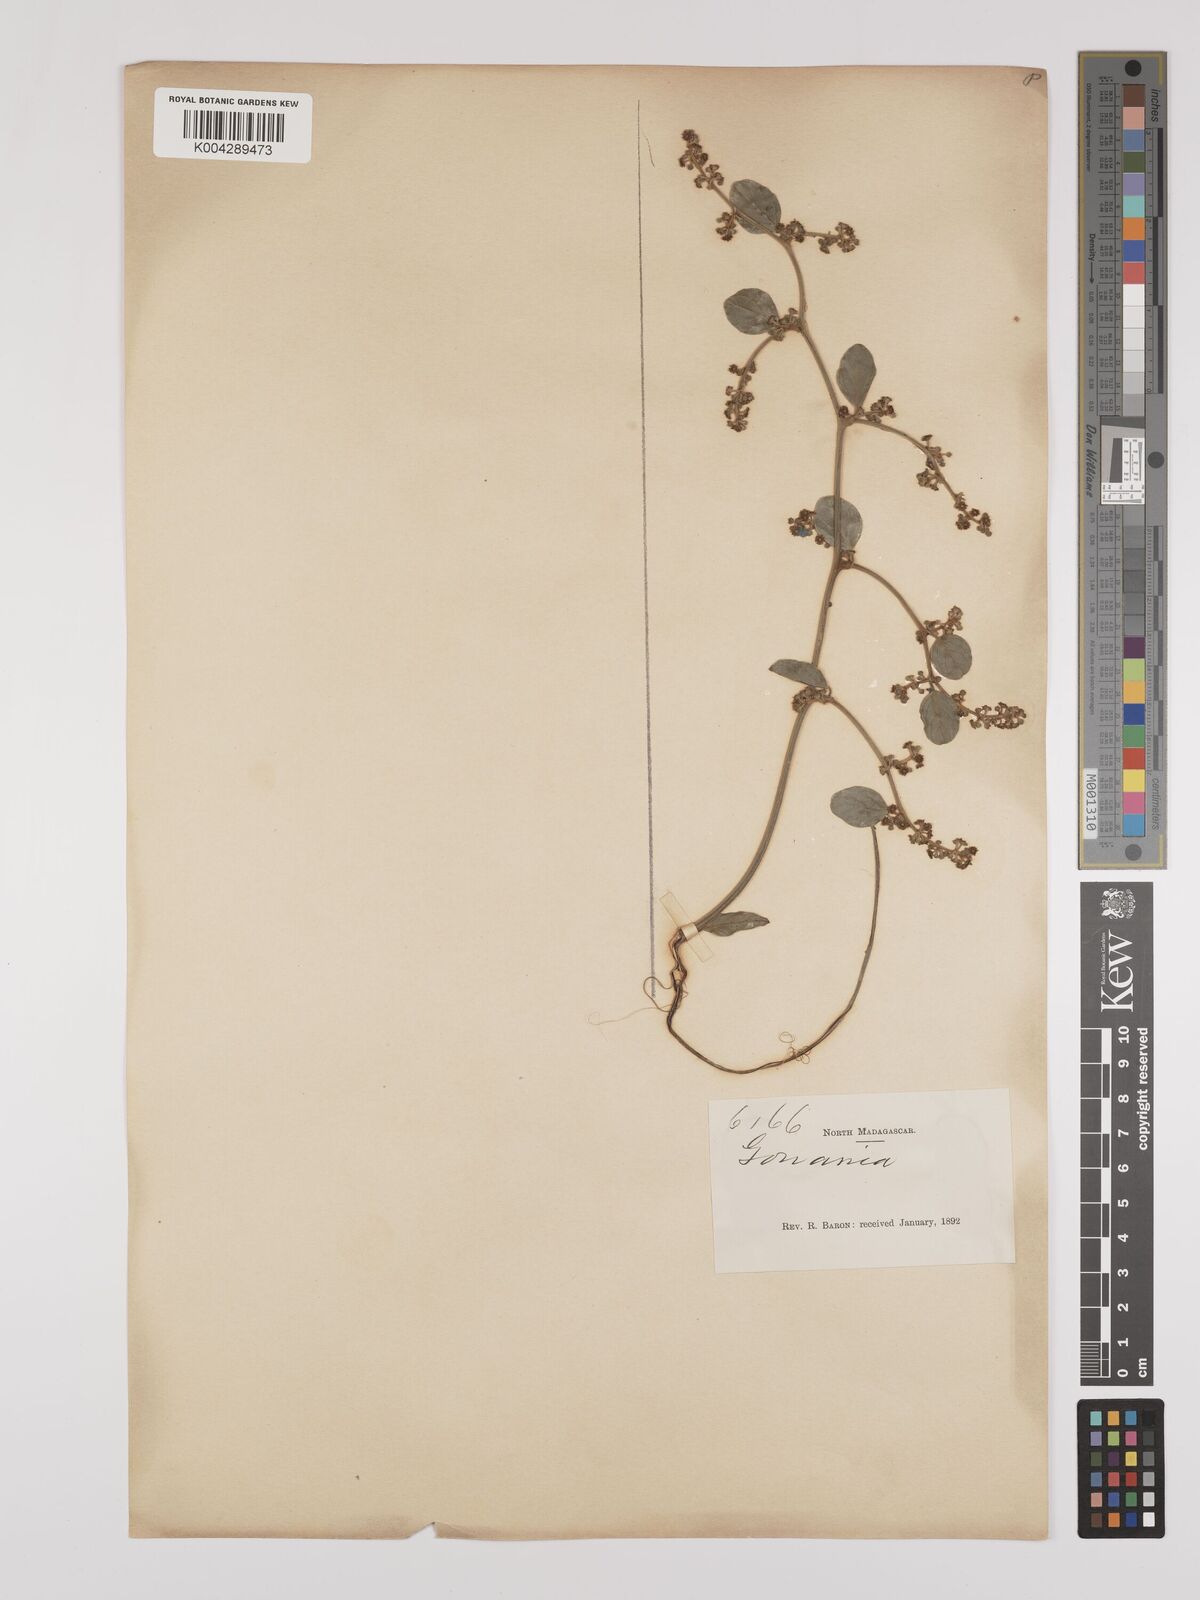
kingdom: Plantae
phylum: Tracheophyta
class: Magnoliopsida
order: Rosales
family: Rhamnaceae
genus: Ventilago
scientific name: Ventilago leptadenia
